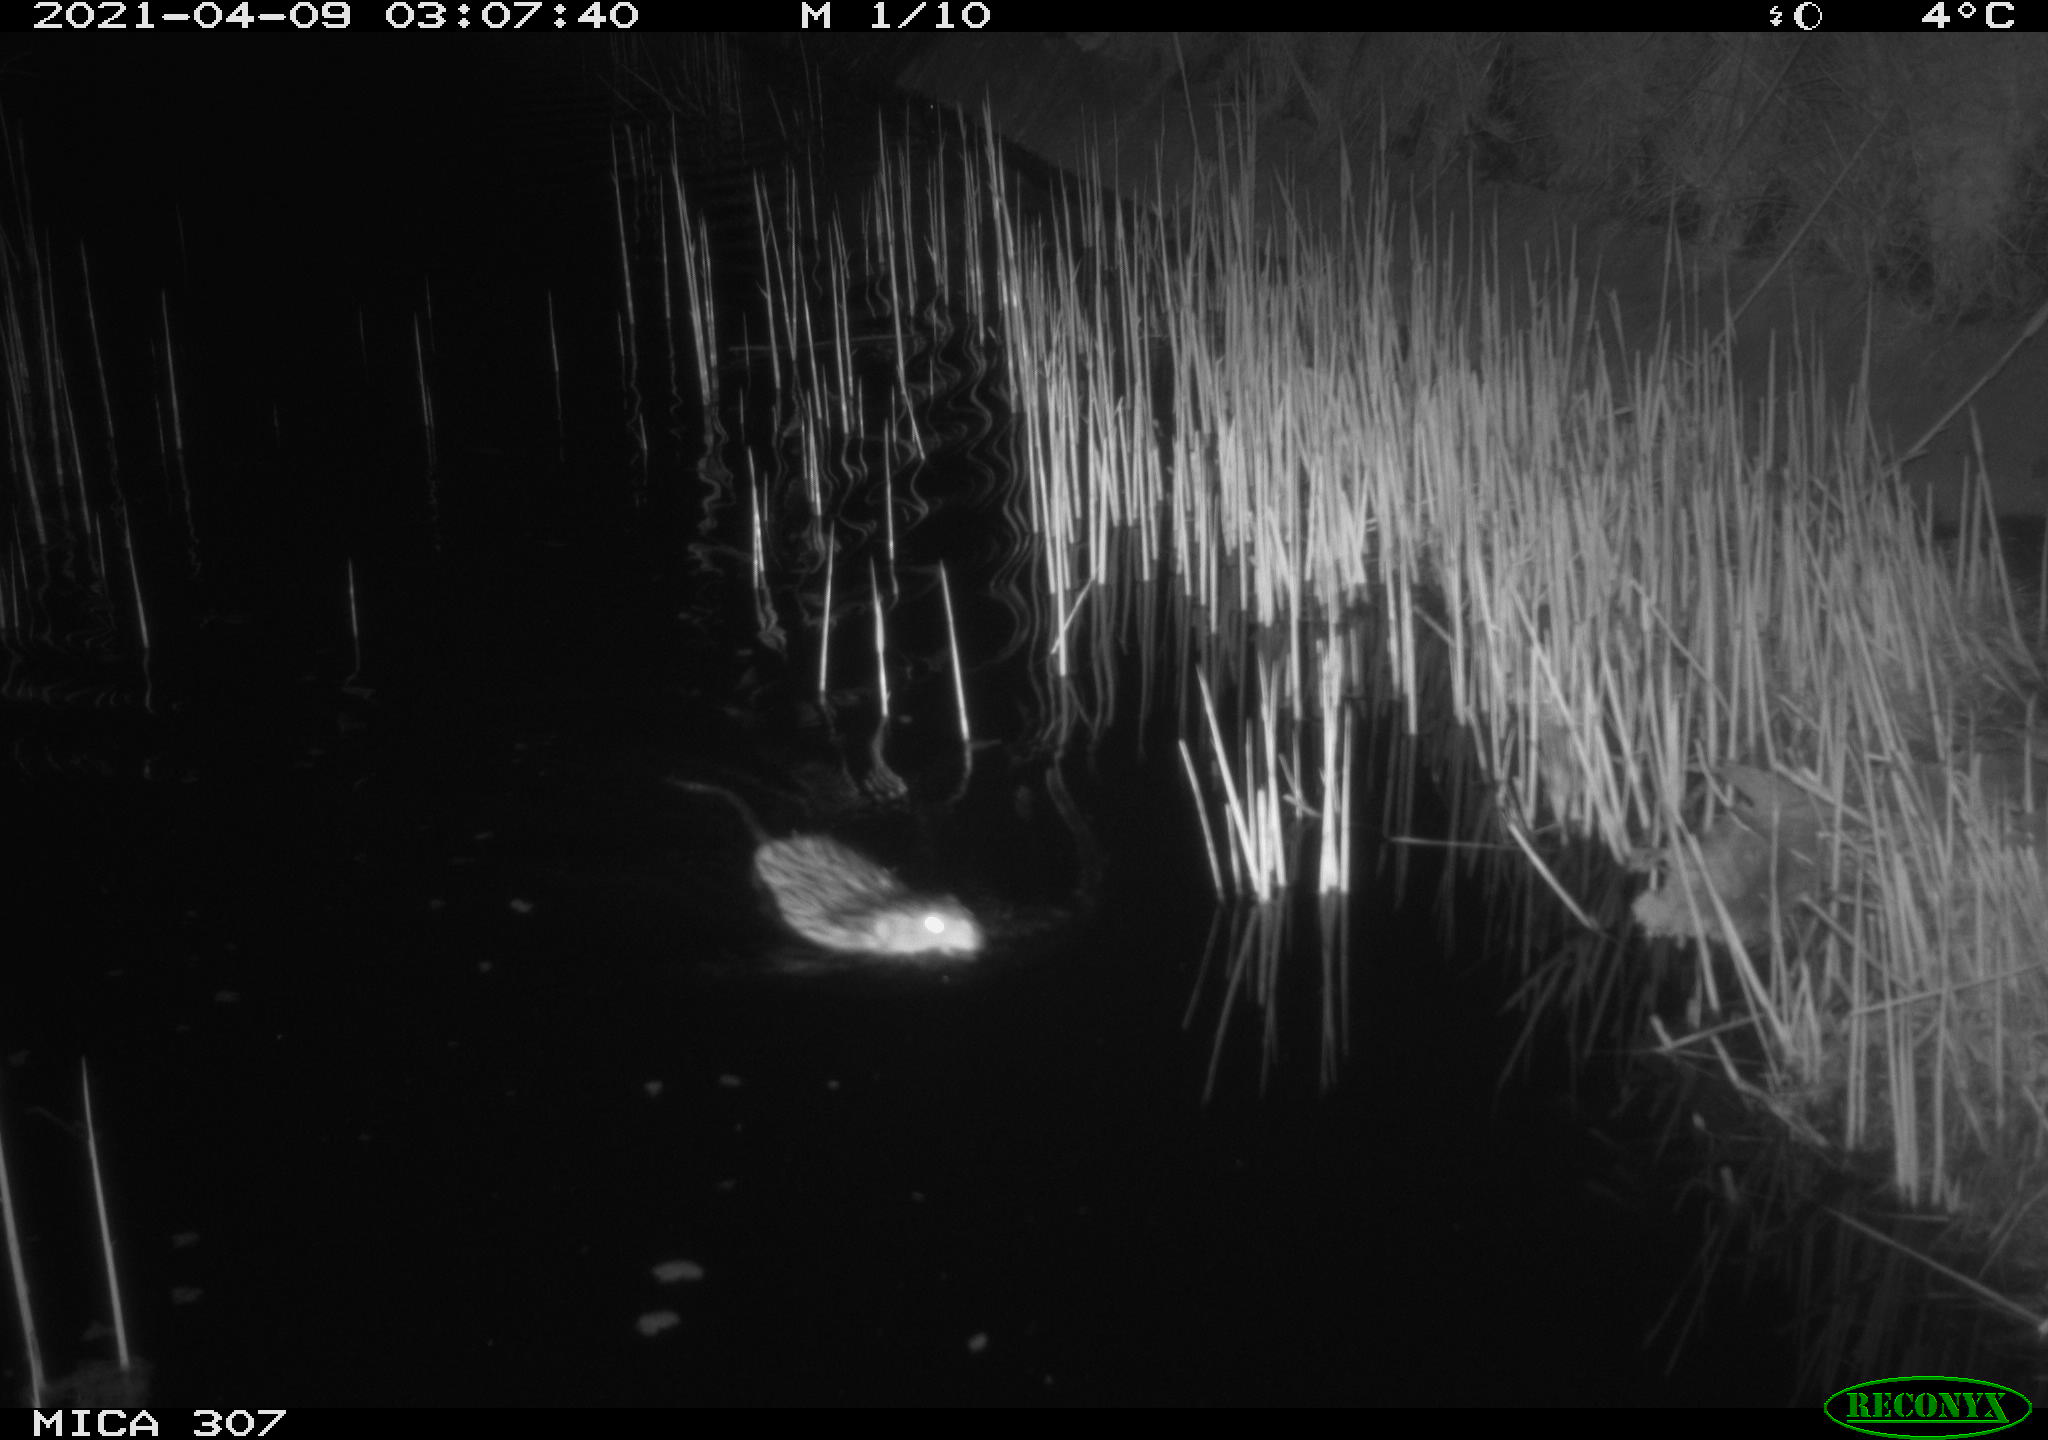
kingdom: Animalia
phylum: Chordata
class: Mammalia
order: Rodentia
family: Cricetidae
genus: Ondatra
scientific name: Ondatra zibethicus
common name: Muskrat
